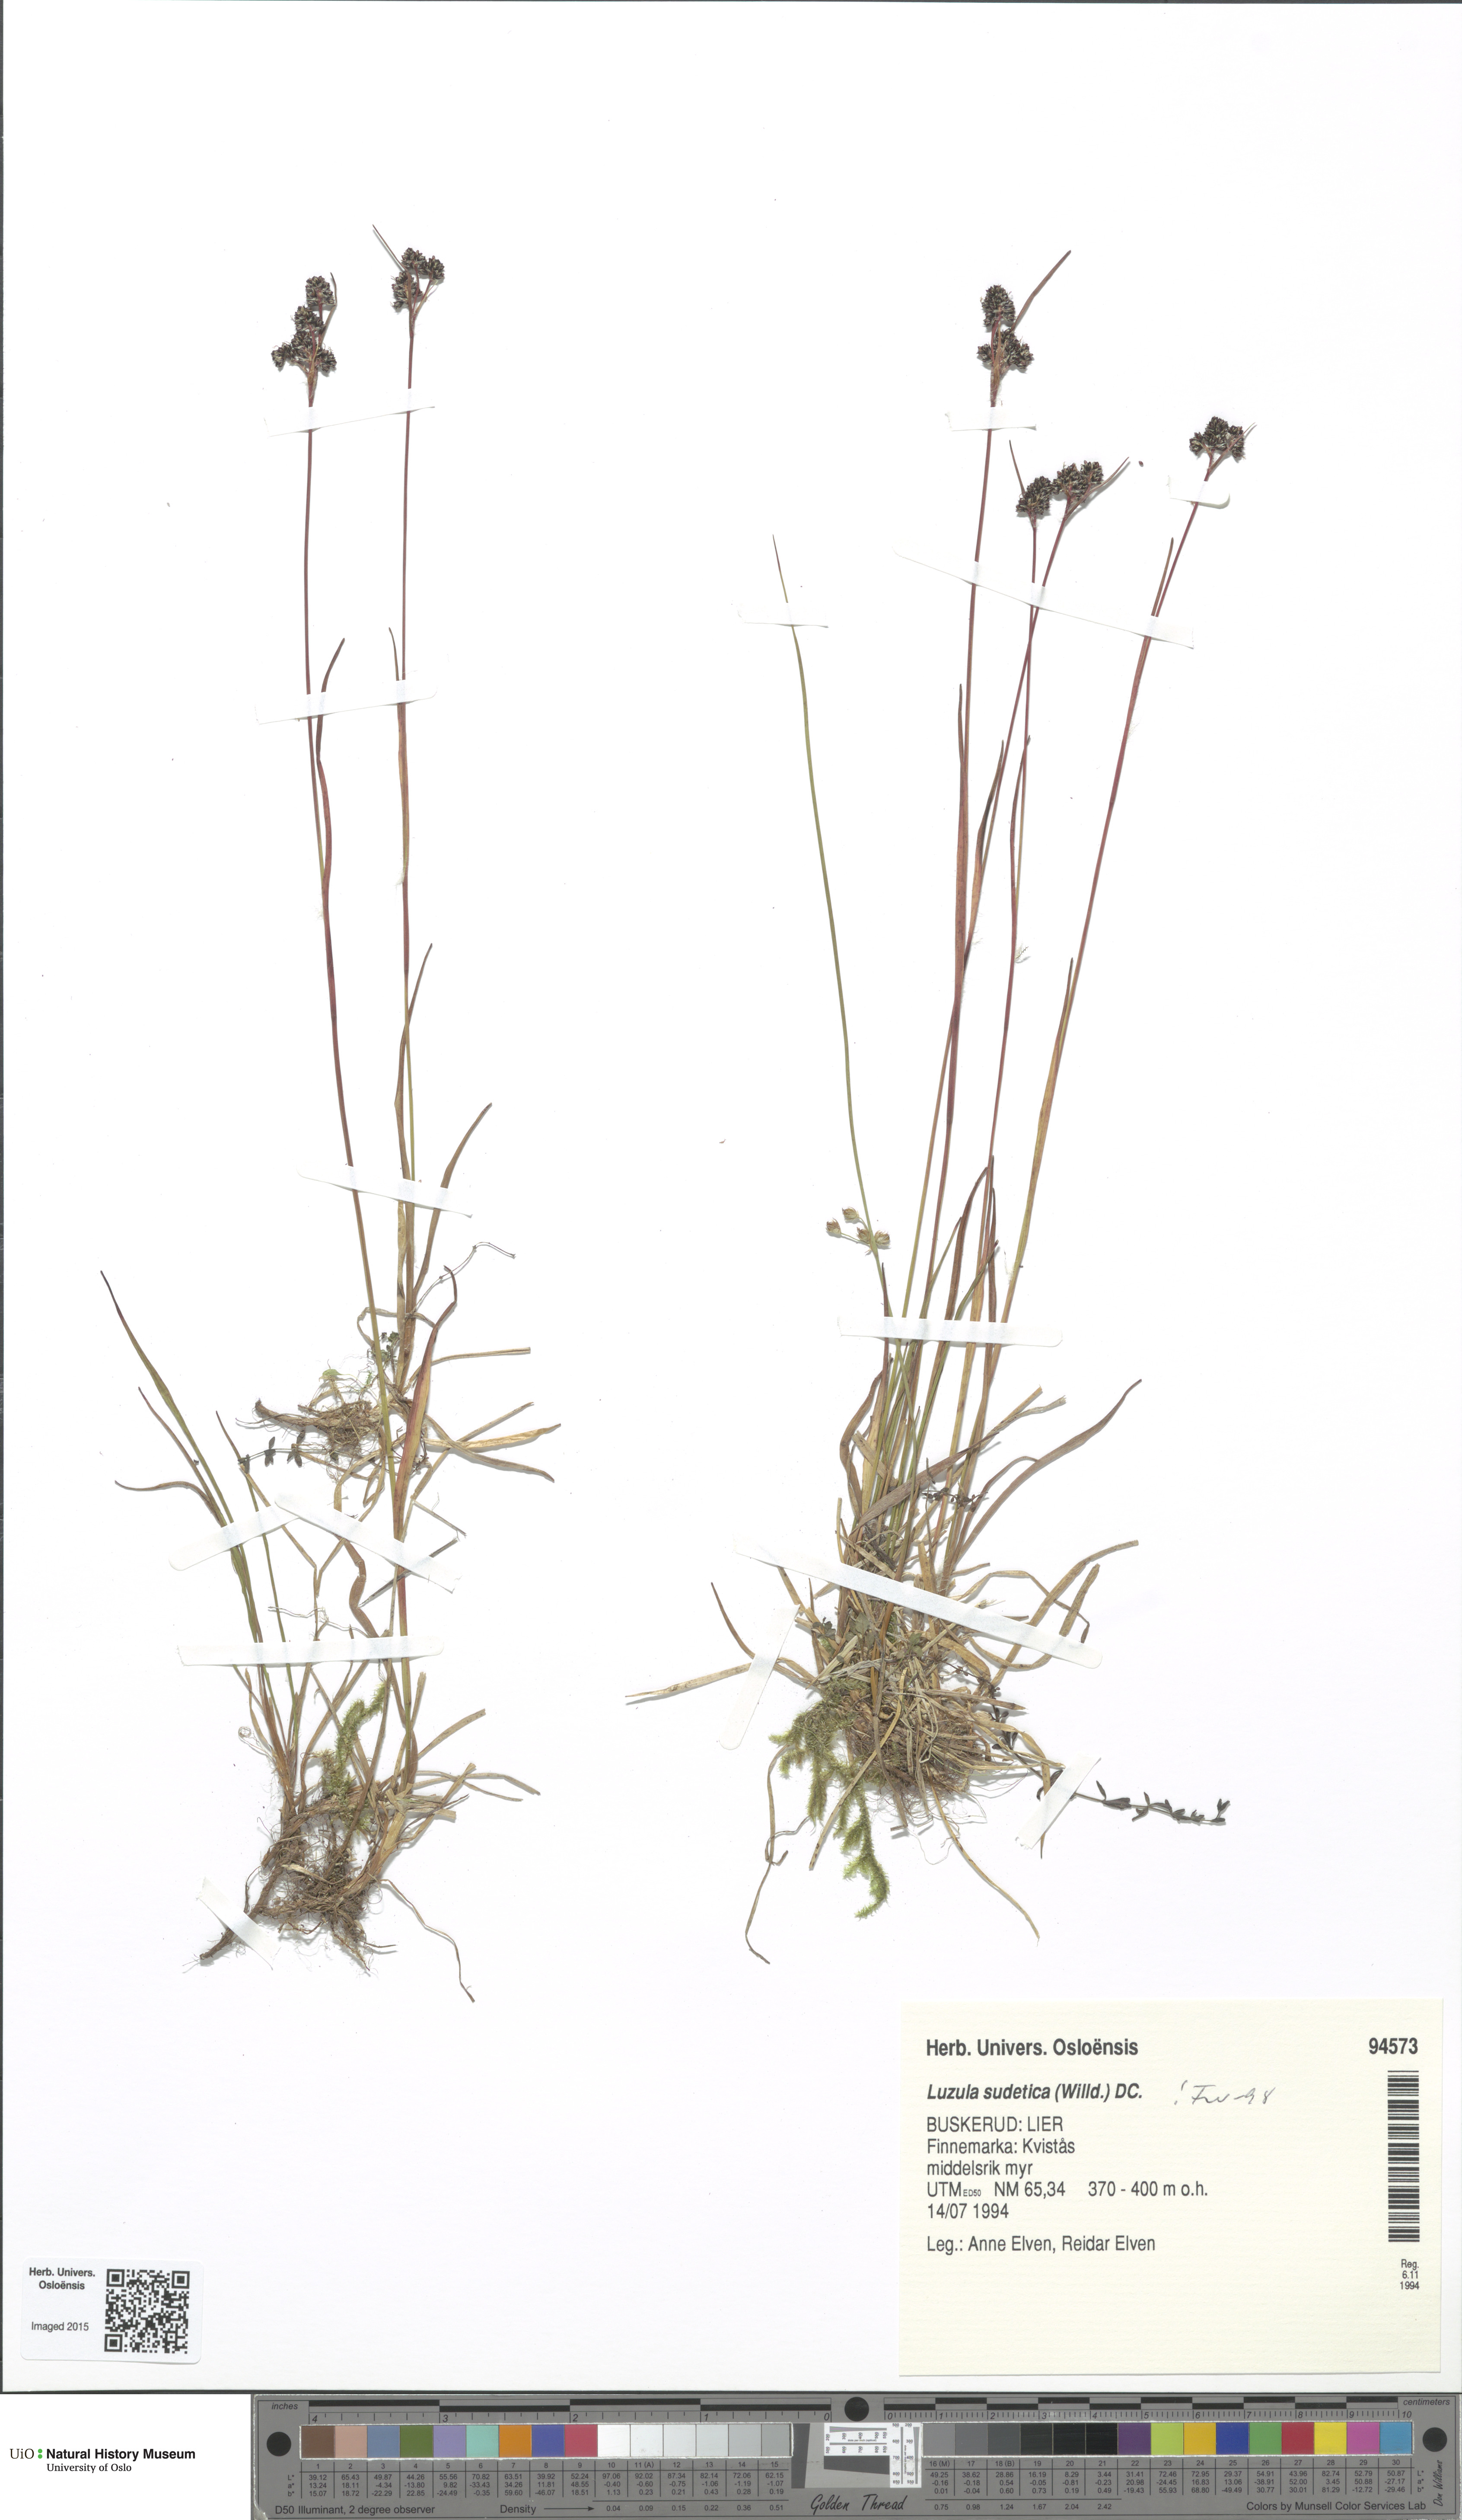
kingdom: Plantae
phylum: Tracheophyta
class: Liliopsida
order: Poales
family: Juncaceae
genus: Luzula
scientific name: Luzula sudetica
